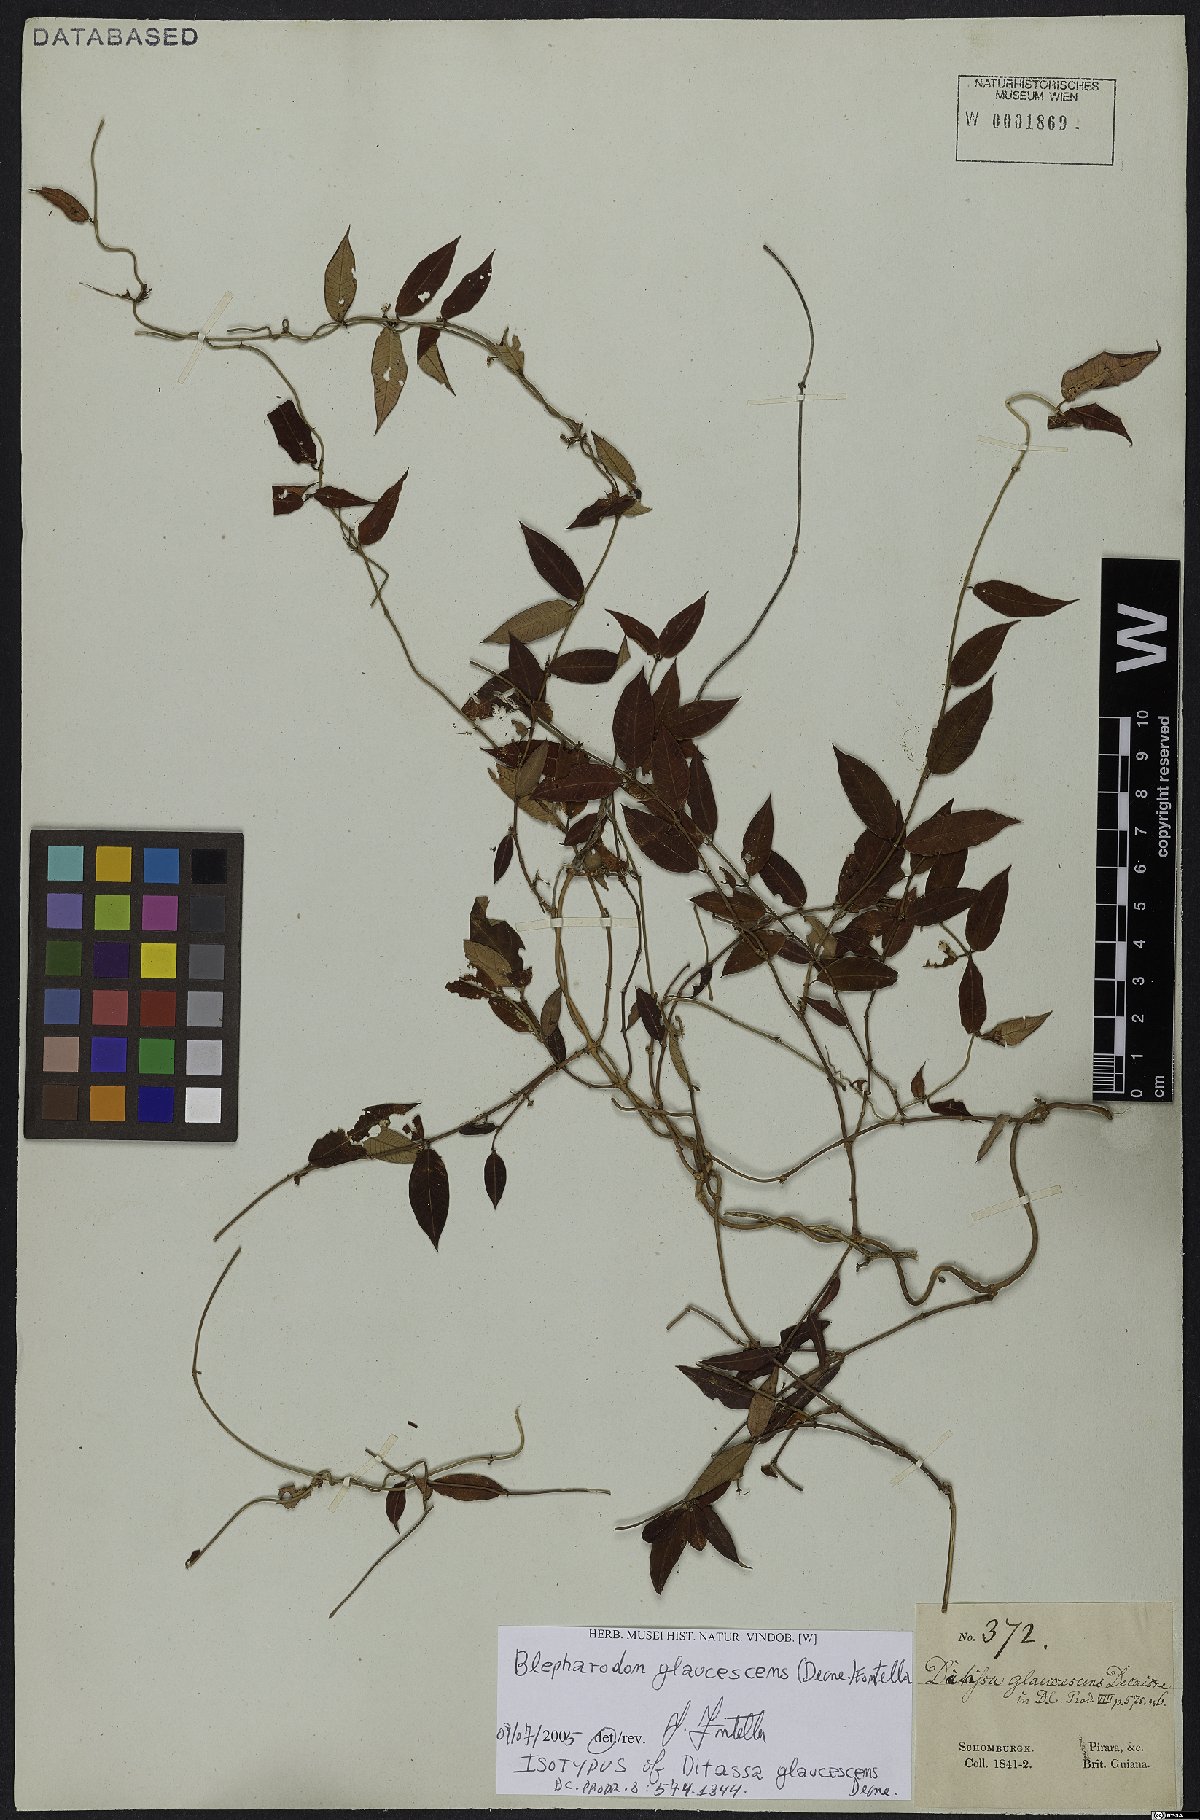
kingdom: Plantae
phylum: Tracheophyta
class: Magnoliopsida
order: Gentianales
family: Apocynaceae
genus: Blepharodon
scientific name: Blepharodon glaucescens
